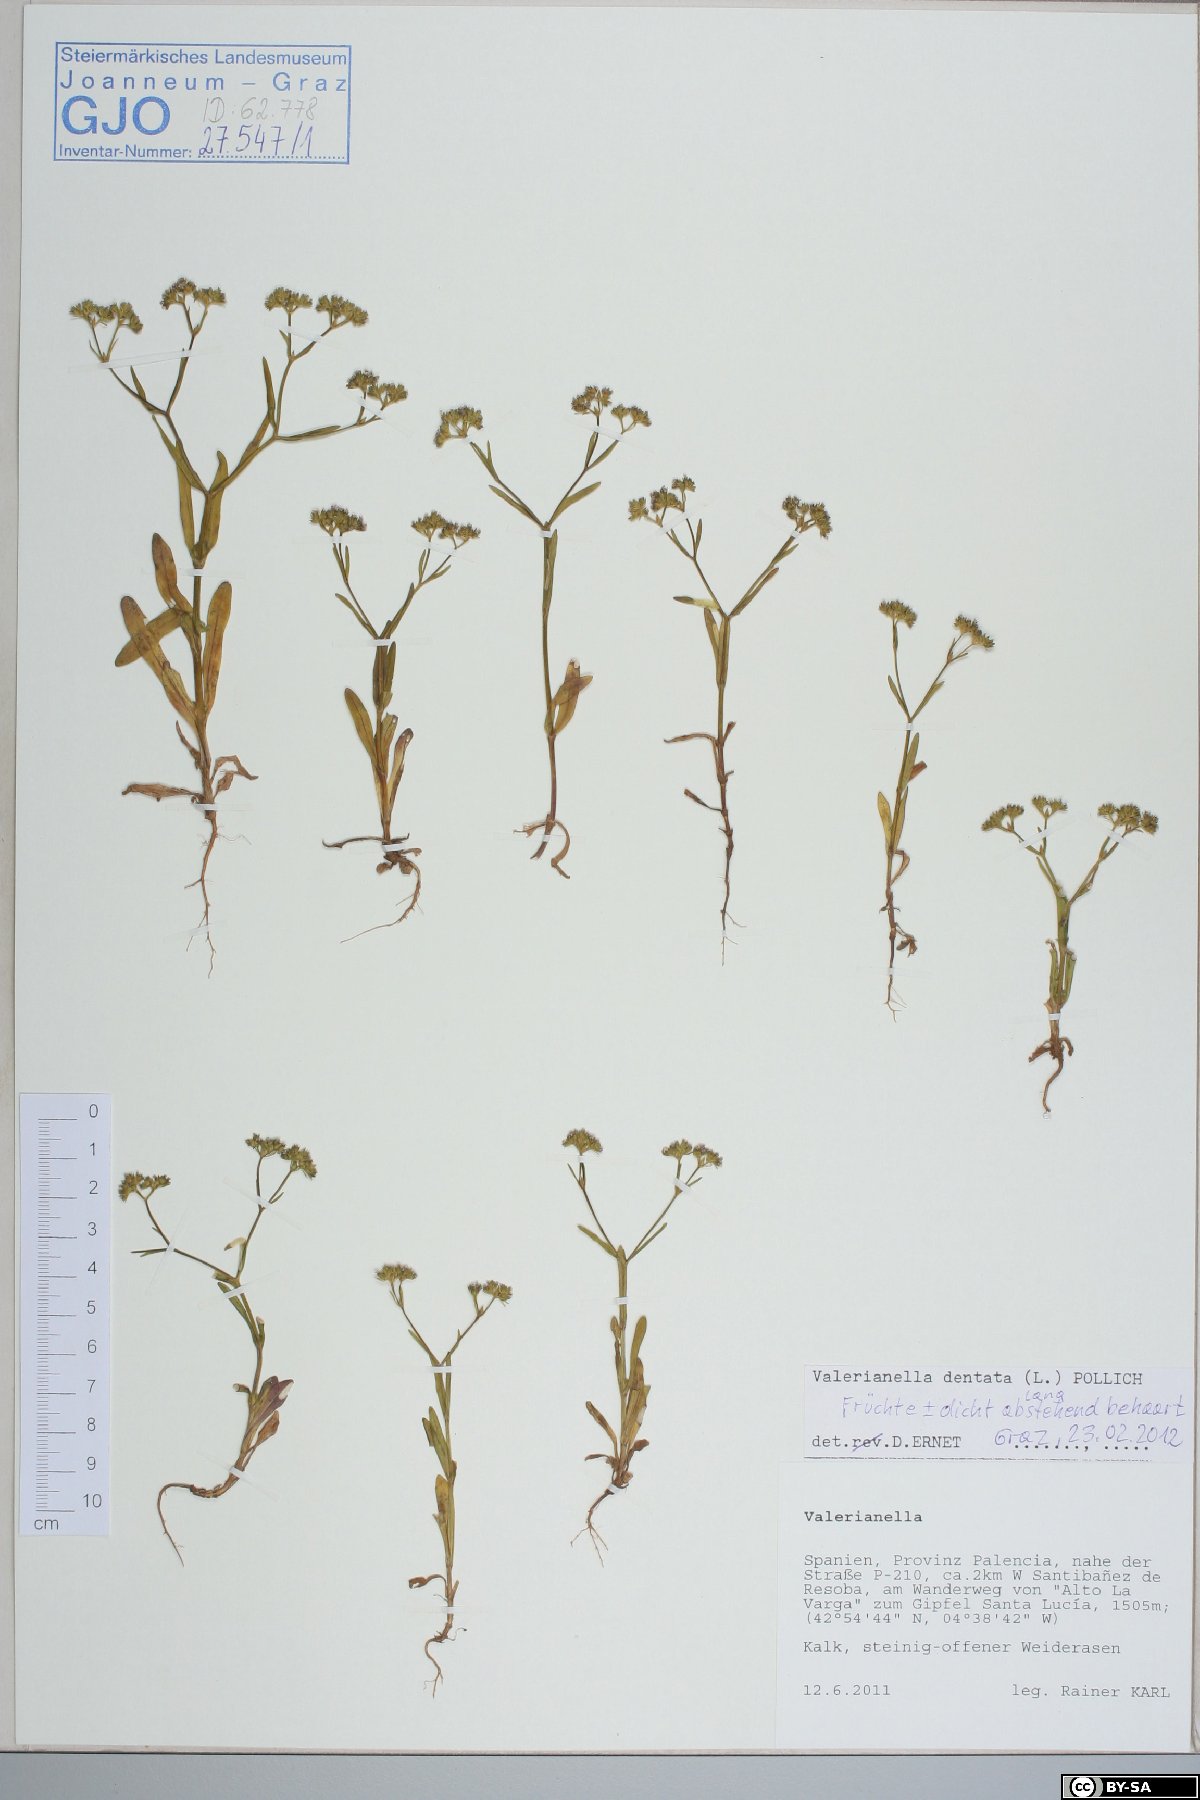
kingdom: Plantae
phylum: Tracheophyta
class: Magnoliopsida
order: Dipsacales
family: Caprifoliaceae
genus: Valerianella
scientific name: Valerianella dentata
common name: Narrow-fruited cornsalad
